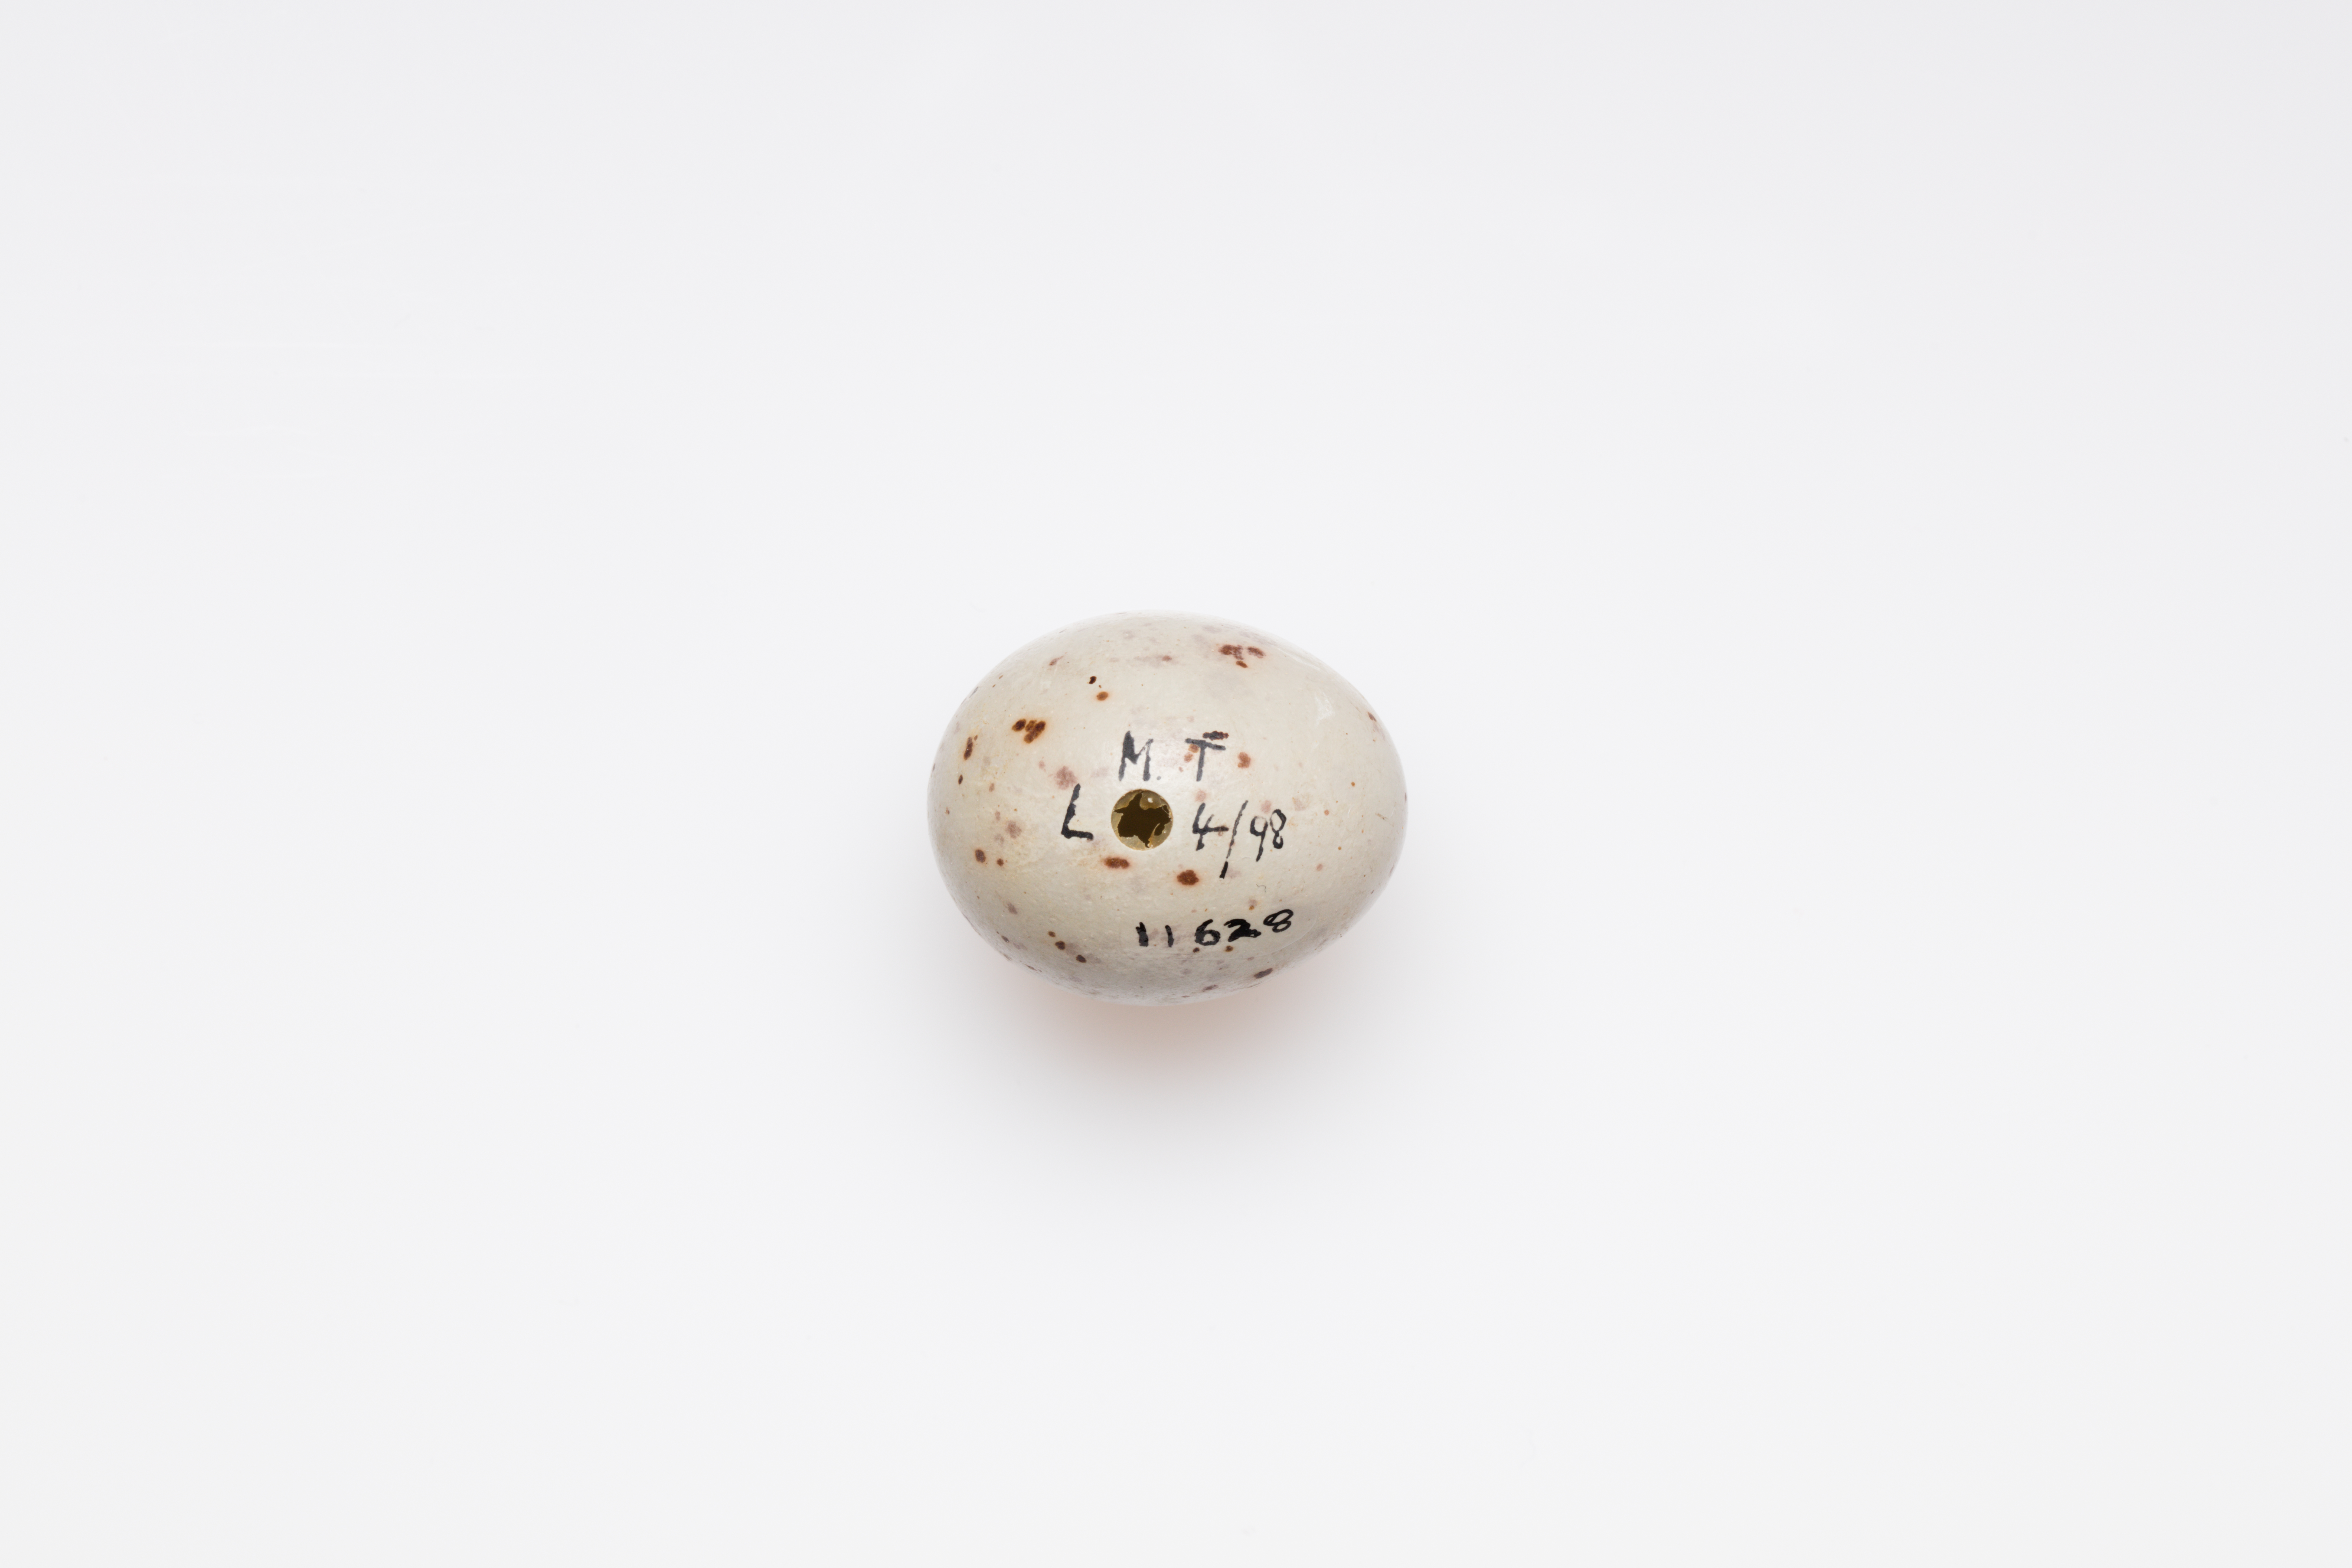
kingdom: Animalia
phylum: Chordata
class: Aves
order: Passeriformes
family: Turdidae
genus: Turdus
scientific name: Turdus viscivorus
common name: Mistle thrush
